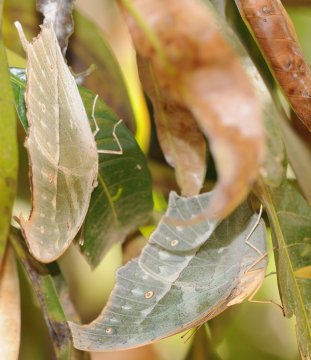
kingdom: Animalia
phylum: Arthropoda
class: Insecta
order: Lepidoptera
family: Nymphalidae
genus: Salamis
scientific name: Salamis Protogoniomorpha parhassus
